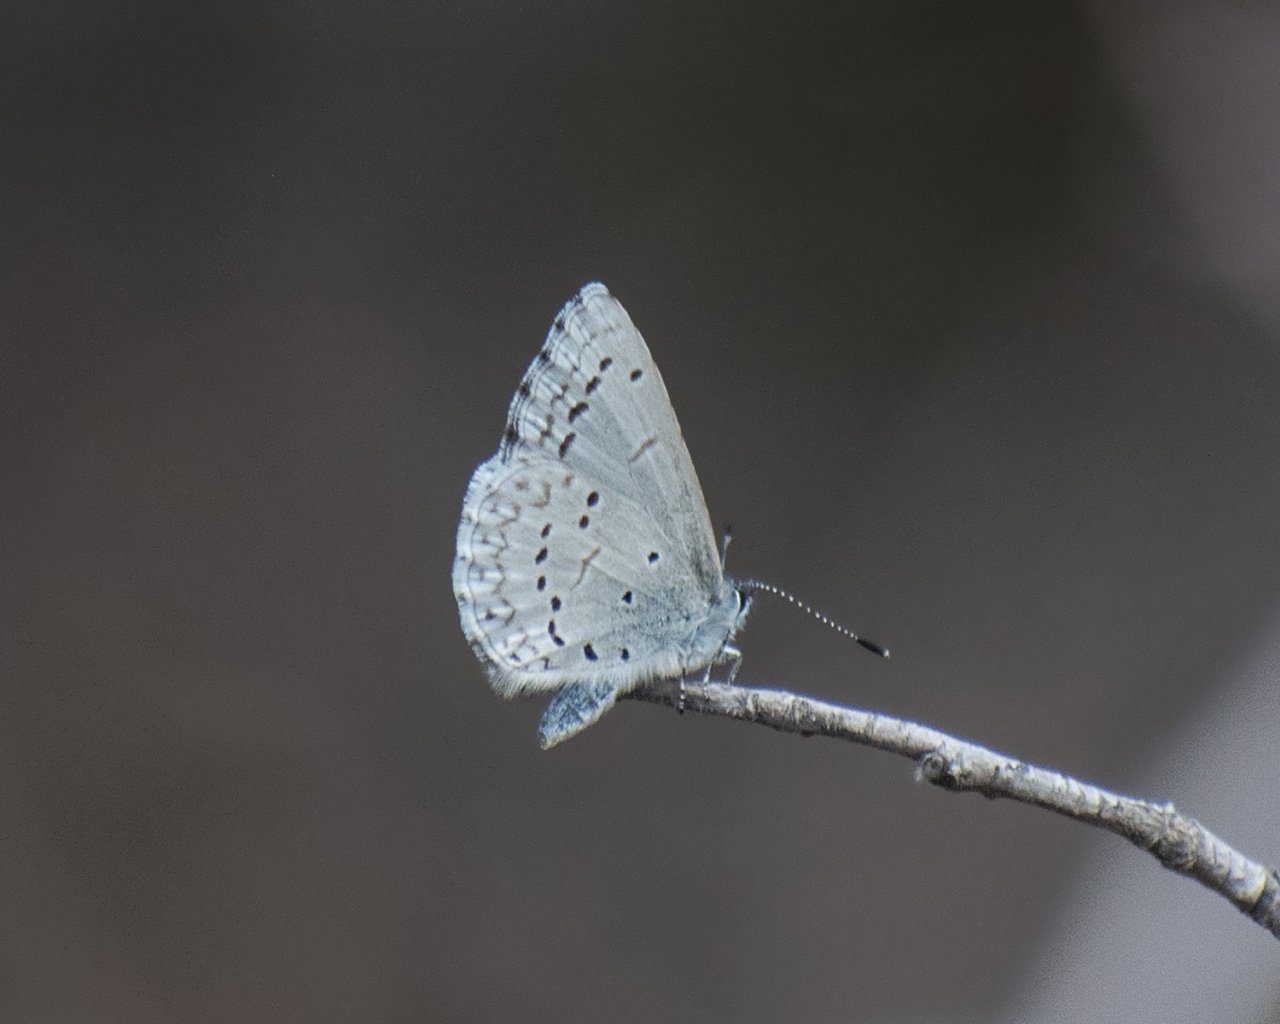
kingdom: Animalia
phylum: Arthropoda
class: Insecta
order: Lepidoptera
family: Lycaenidae
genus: Celastrina
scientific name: Celastrina ladon
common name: Echo Azure
